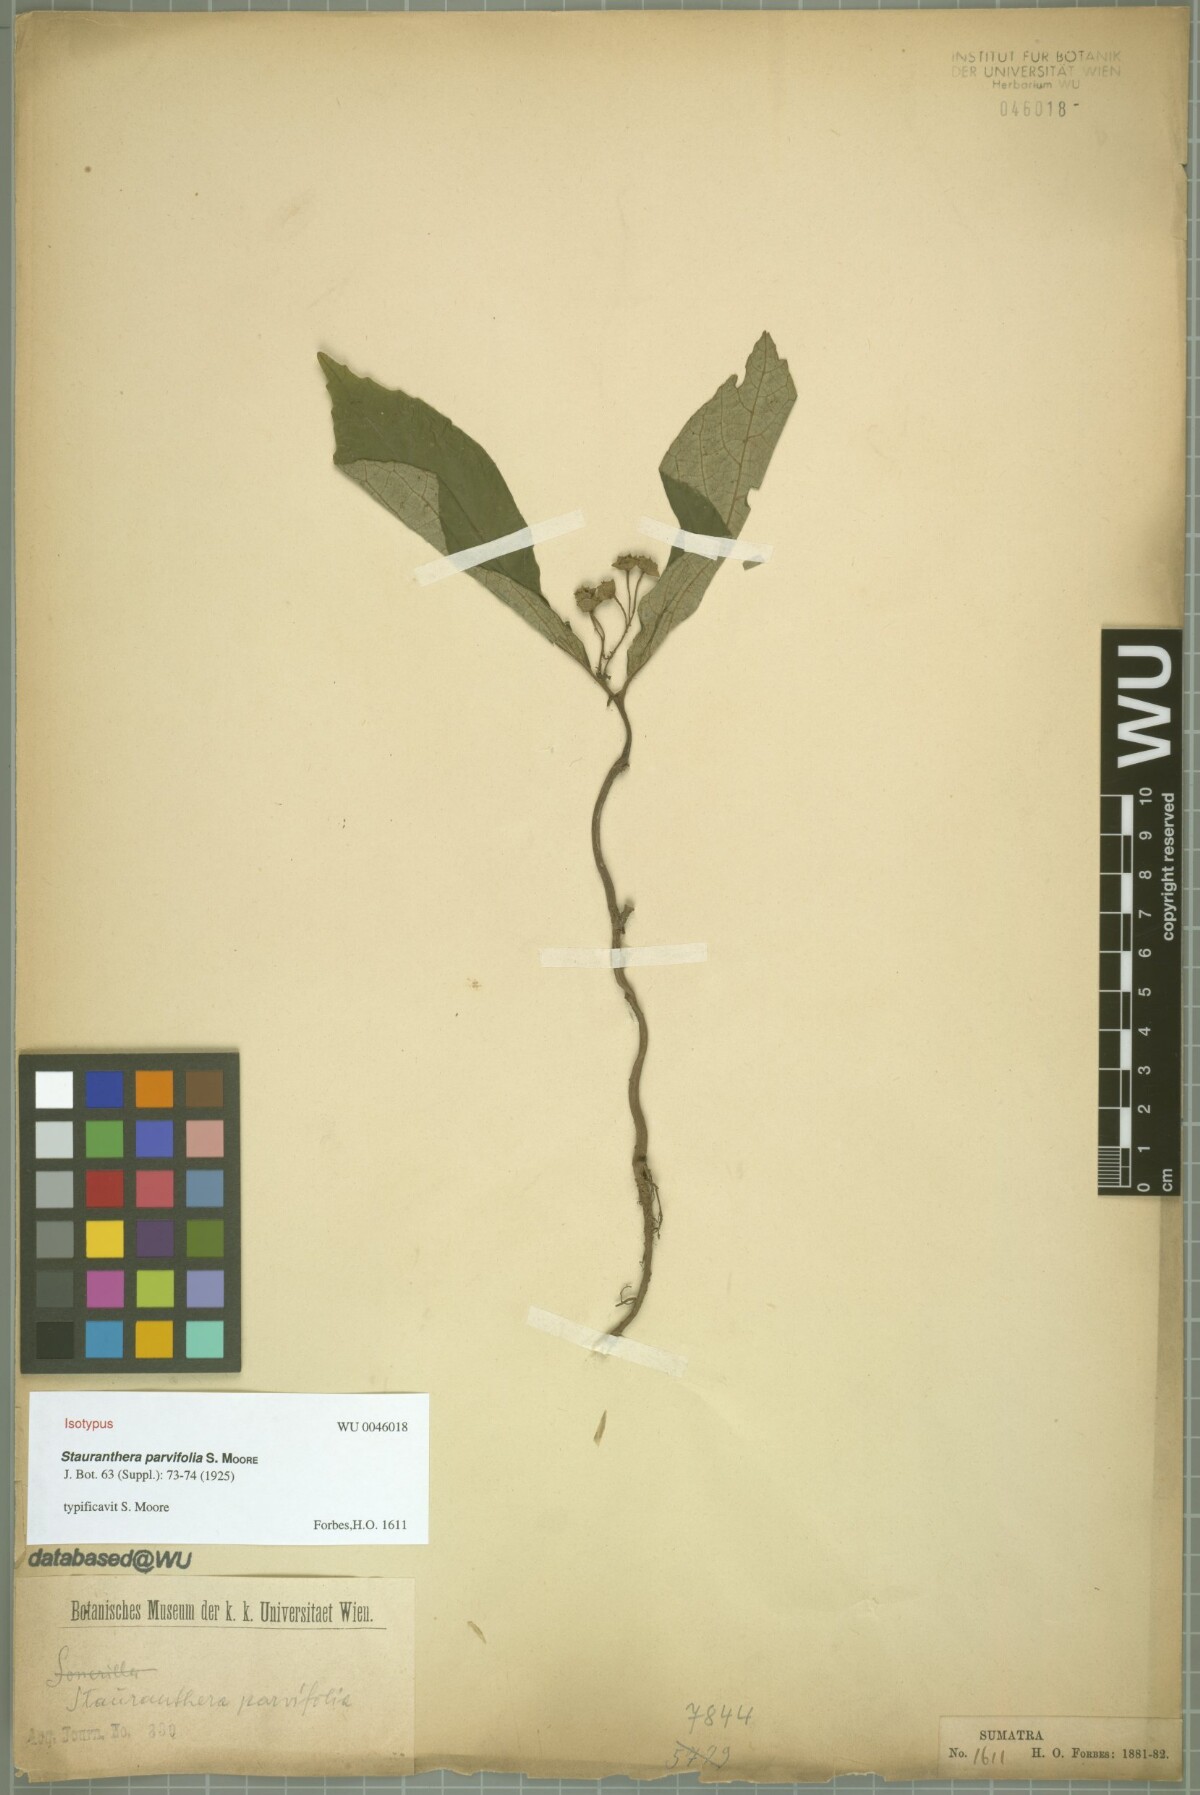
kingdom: Plantae
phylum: Tracheophyta
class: Magnoliopsida
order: Lamiales
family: Gesneriaceae
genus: Stauranthera
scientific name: Stauranthera parvifolia
